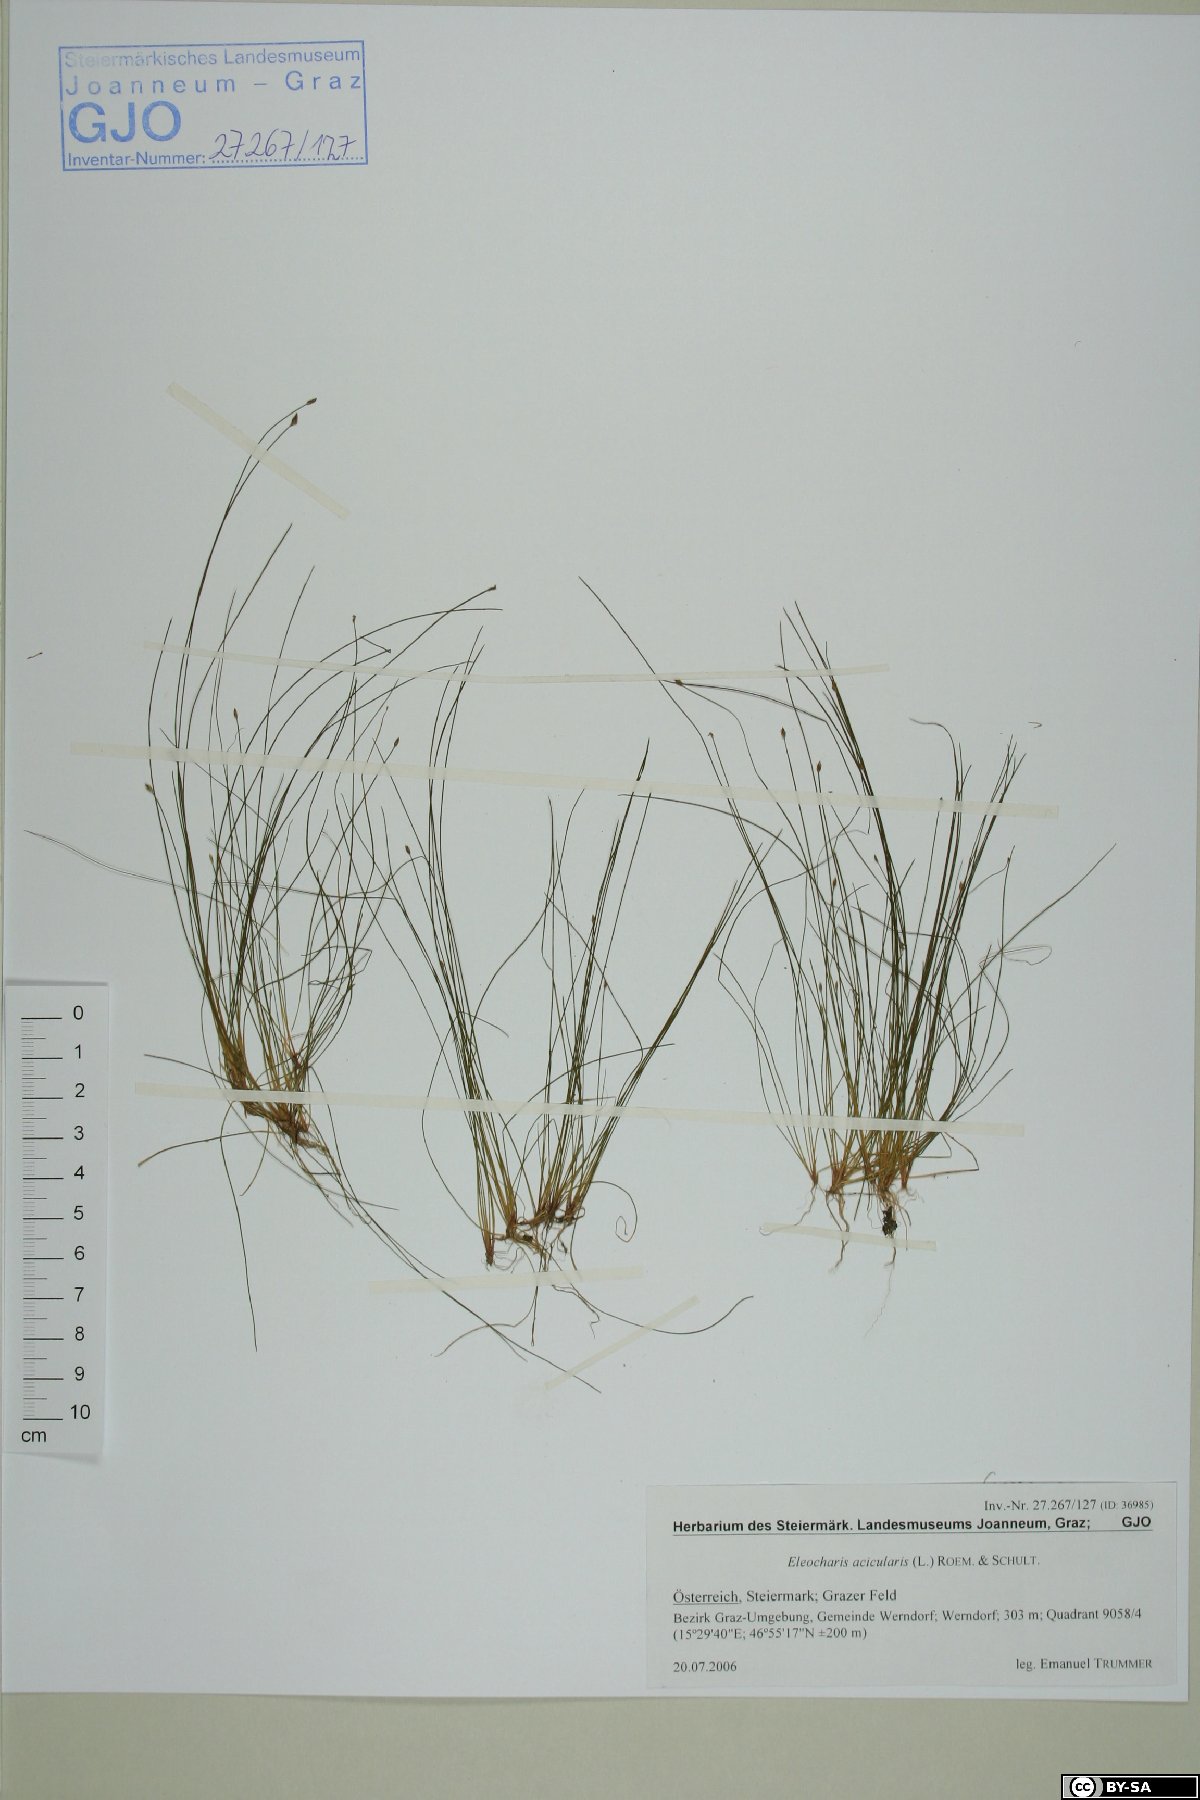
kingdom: Plantae
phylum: Tracheophyta
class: Liliopsida
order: Poales
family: Cyperaceae
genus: Eleocharis
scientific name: Eleocharis acicularis
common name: Needle spike-rush
